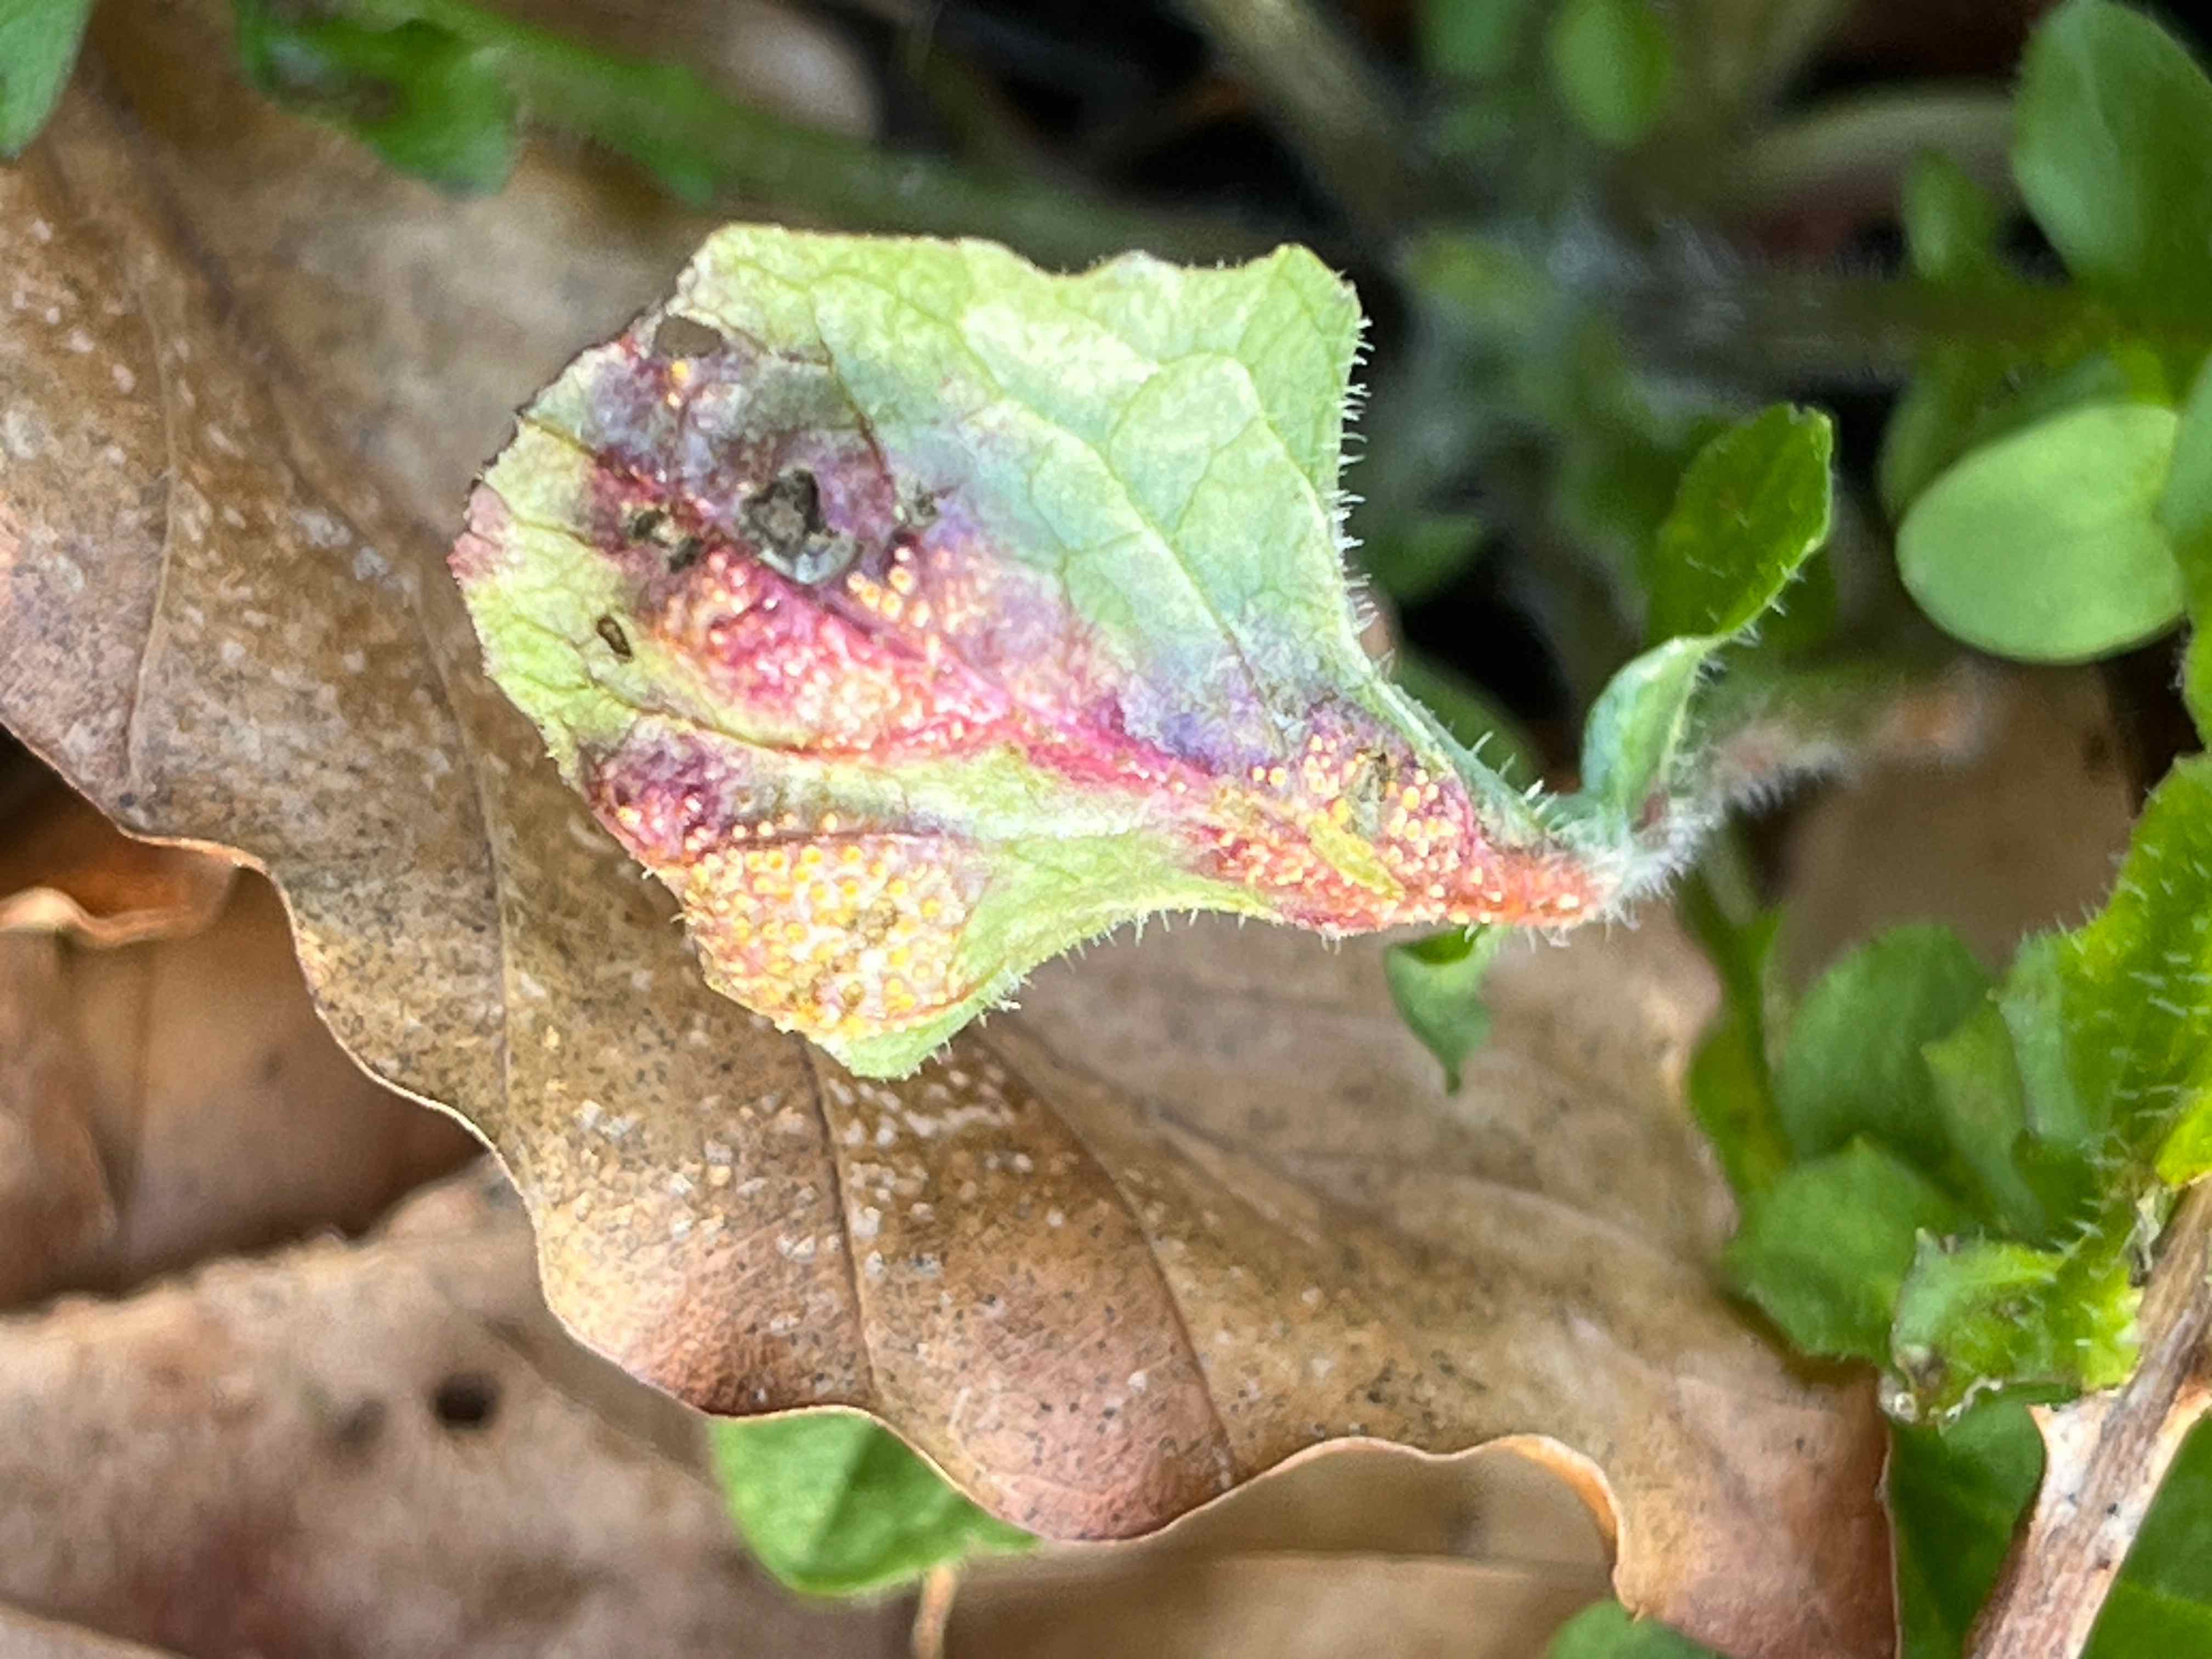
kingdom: Fungi
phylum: Basidiomycota
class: Pucciniomycetes
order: Pucciniales
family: Pucciniaceae
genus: Puccinia
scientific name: Puccinia lapsanae
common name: Nipplewort rust
